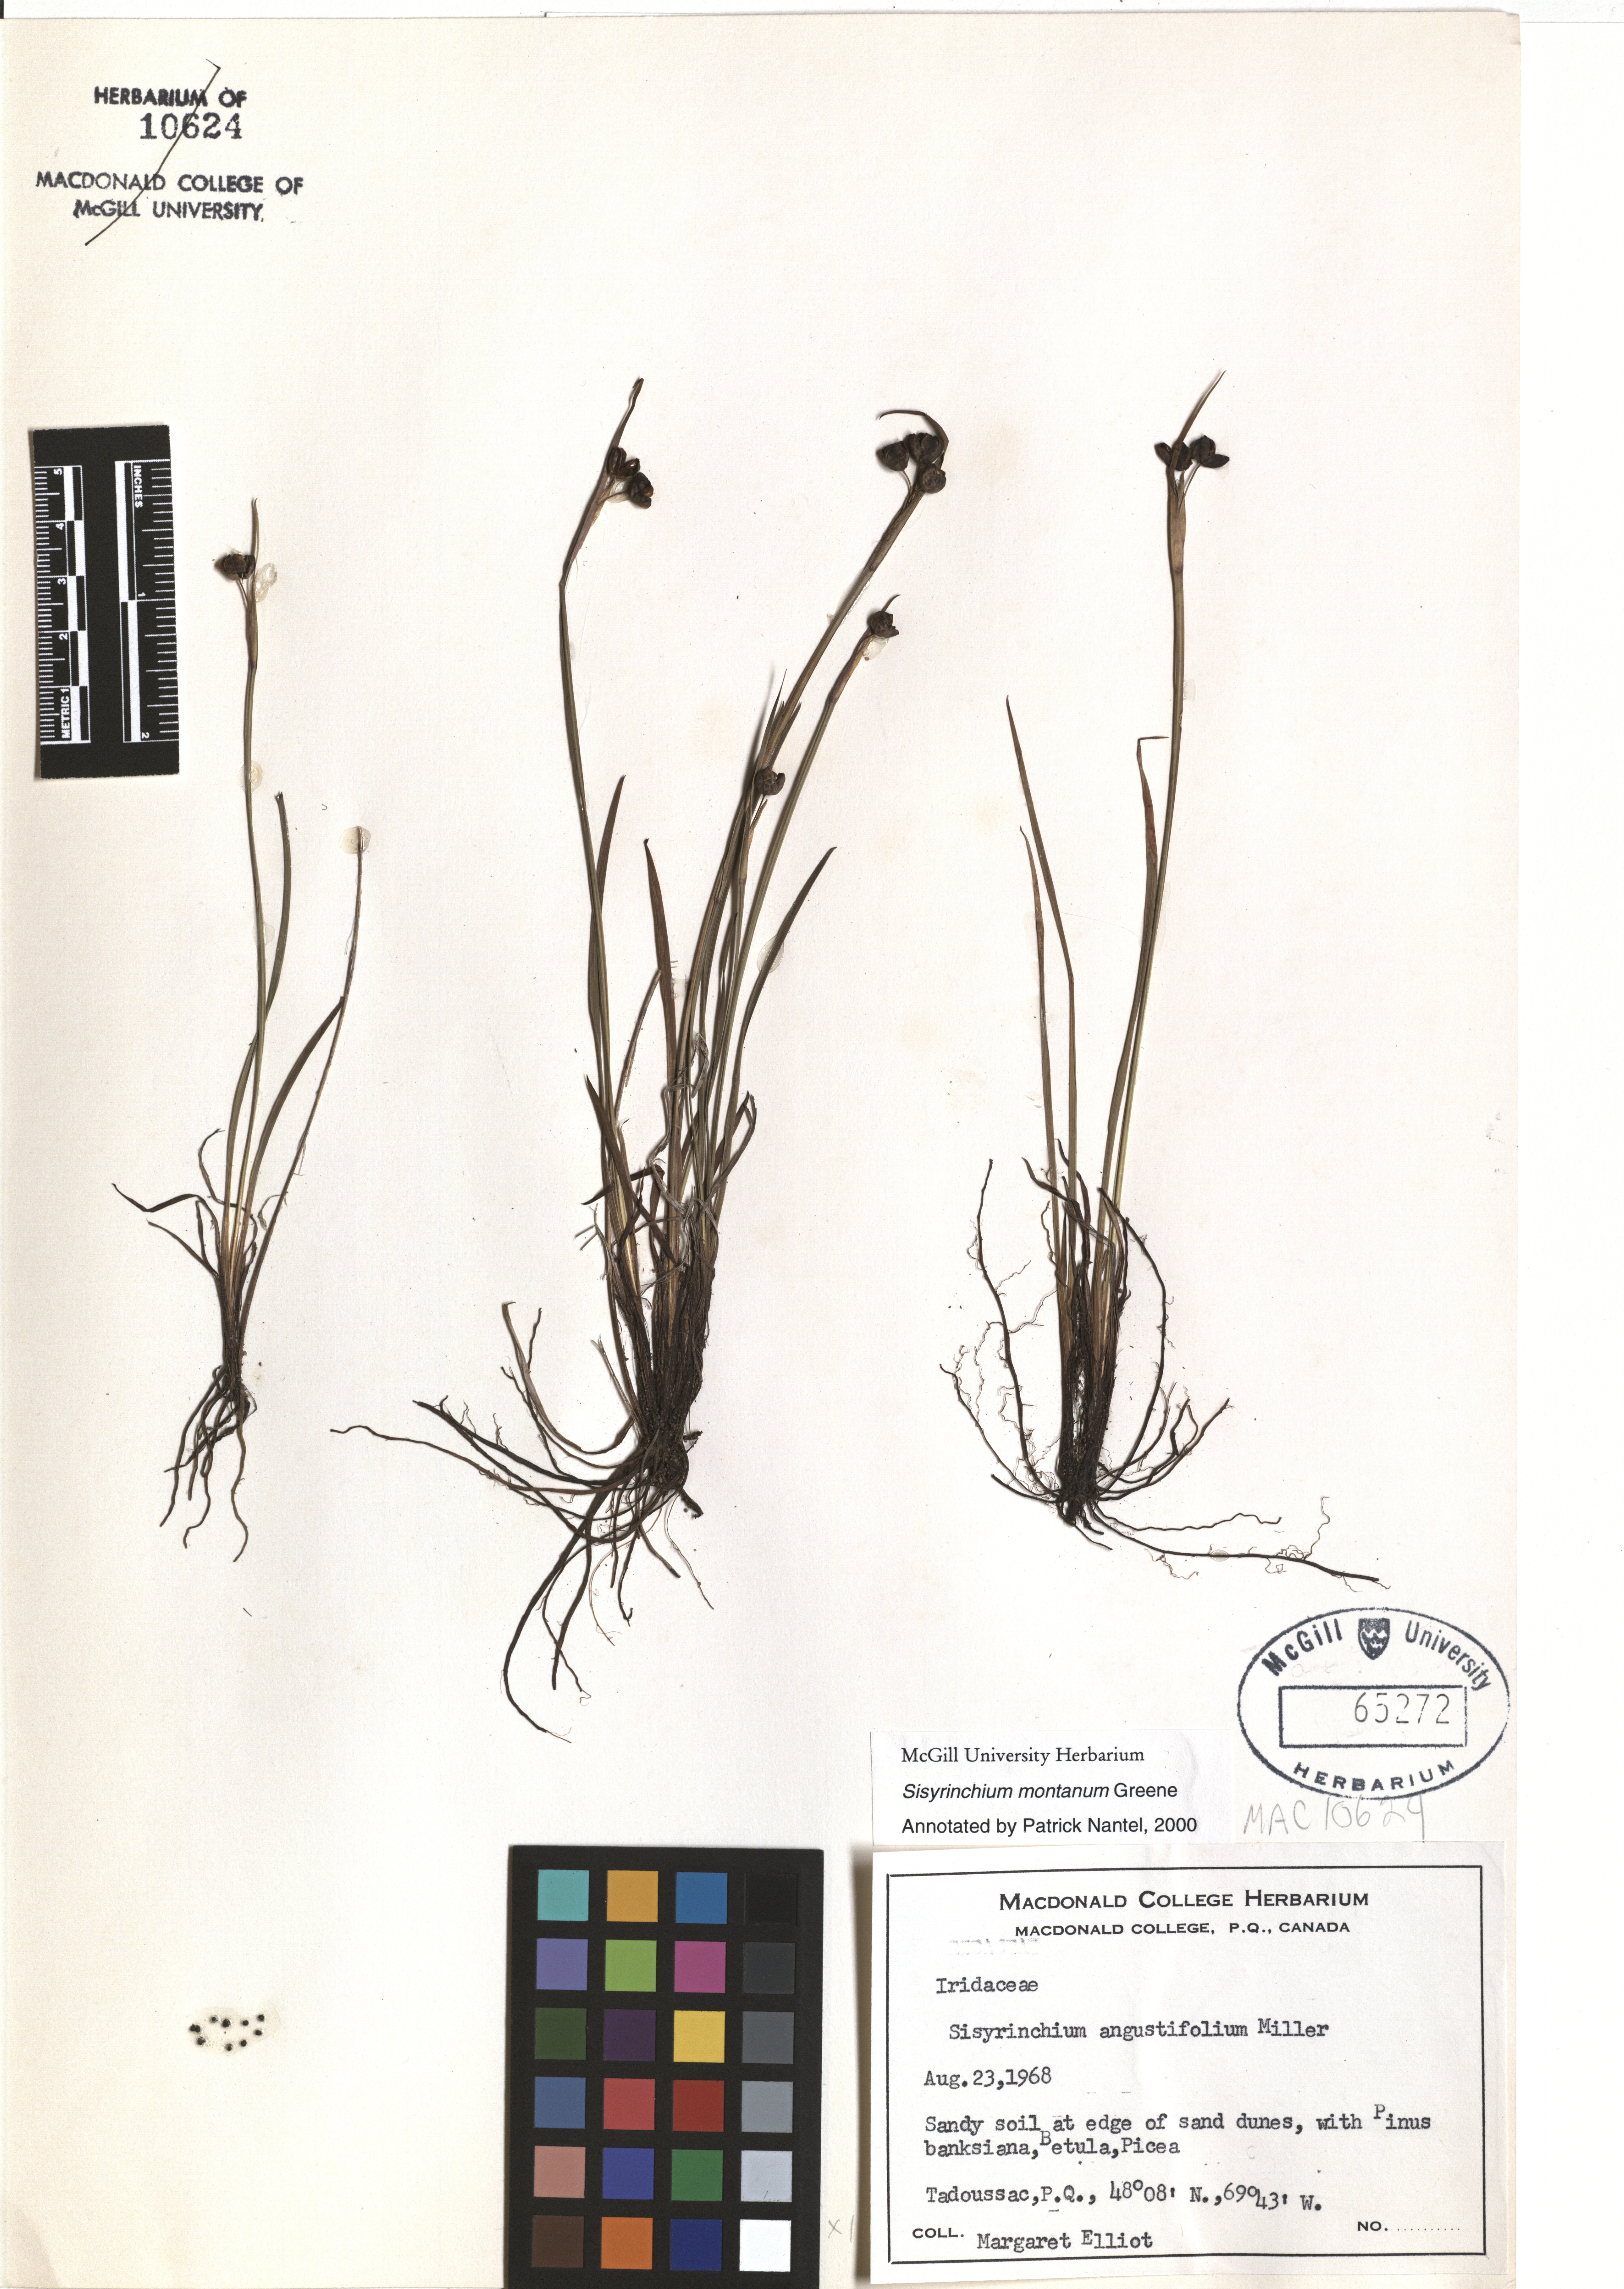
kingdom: Plantae
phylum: Tracheophyta
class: Liliopsida
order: Asparagales
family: Iridaceae
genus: Sisyrinchium
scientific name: Sisyrinchium montanum
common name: American blue-eyed-grass
